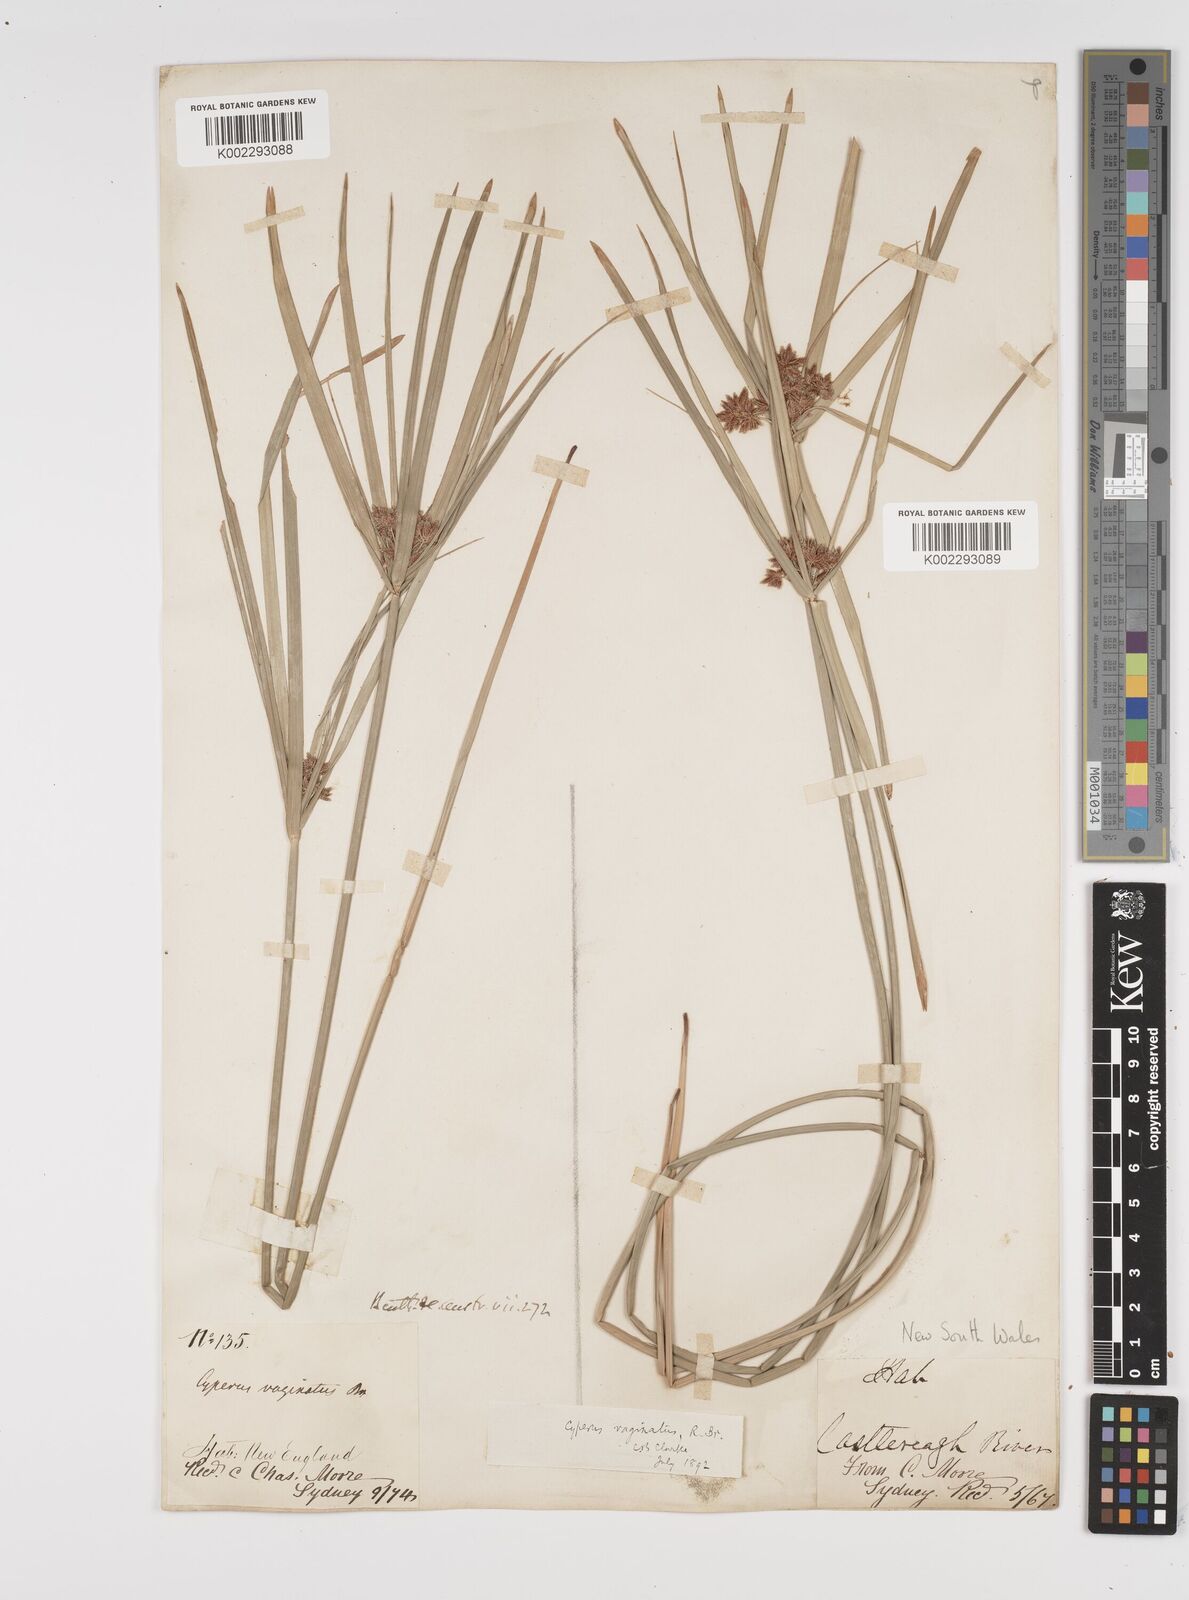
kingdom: Plantae
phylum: Tracheophyta
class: Liliopsida
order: Poales
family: Cyperaceae
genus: Cyperus
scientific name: Cyperus vaginatus
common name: Stiff-leaved flat-sedge
